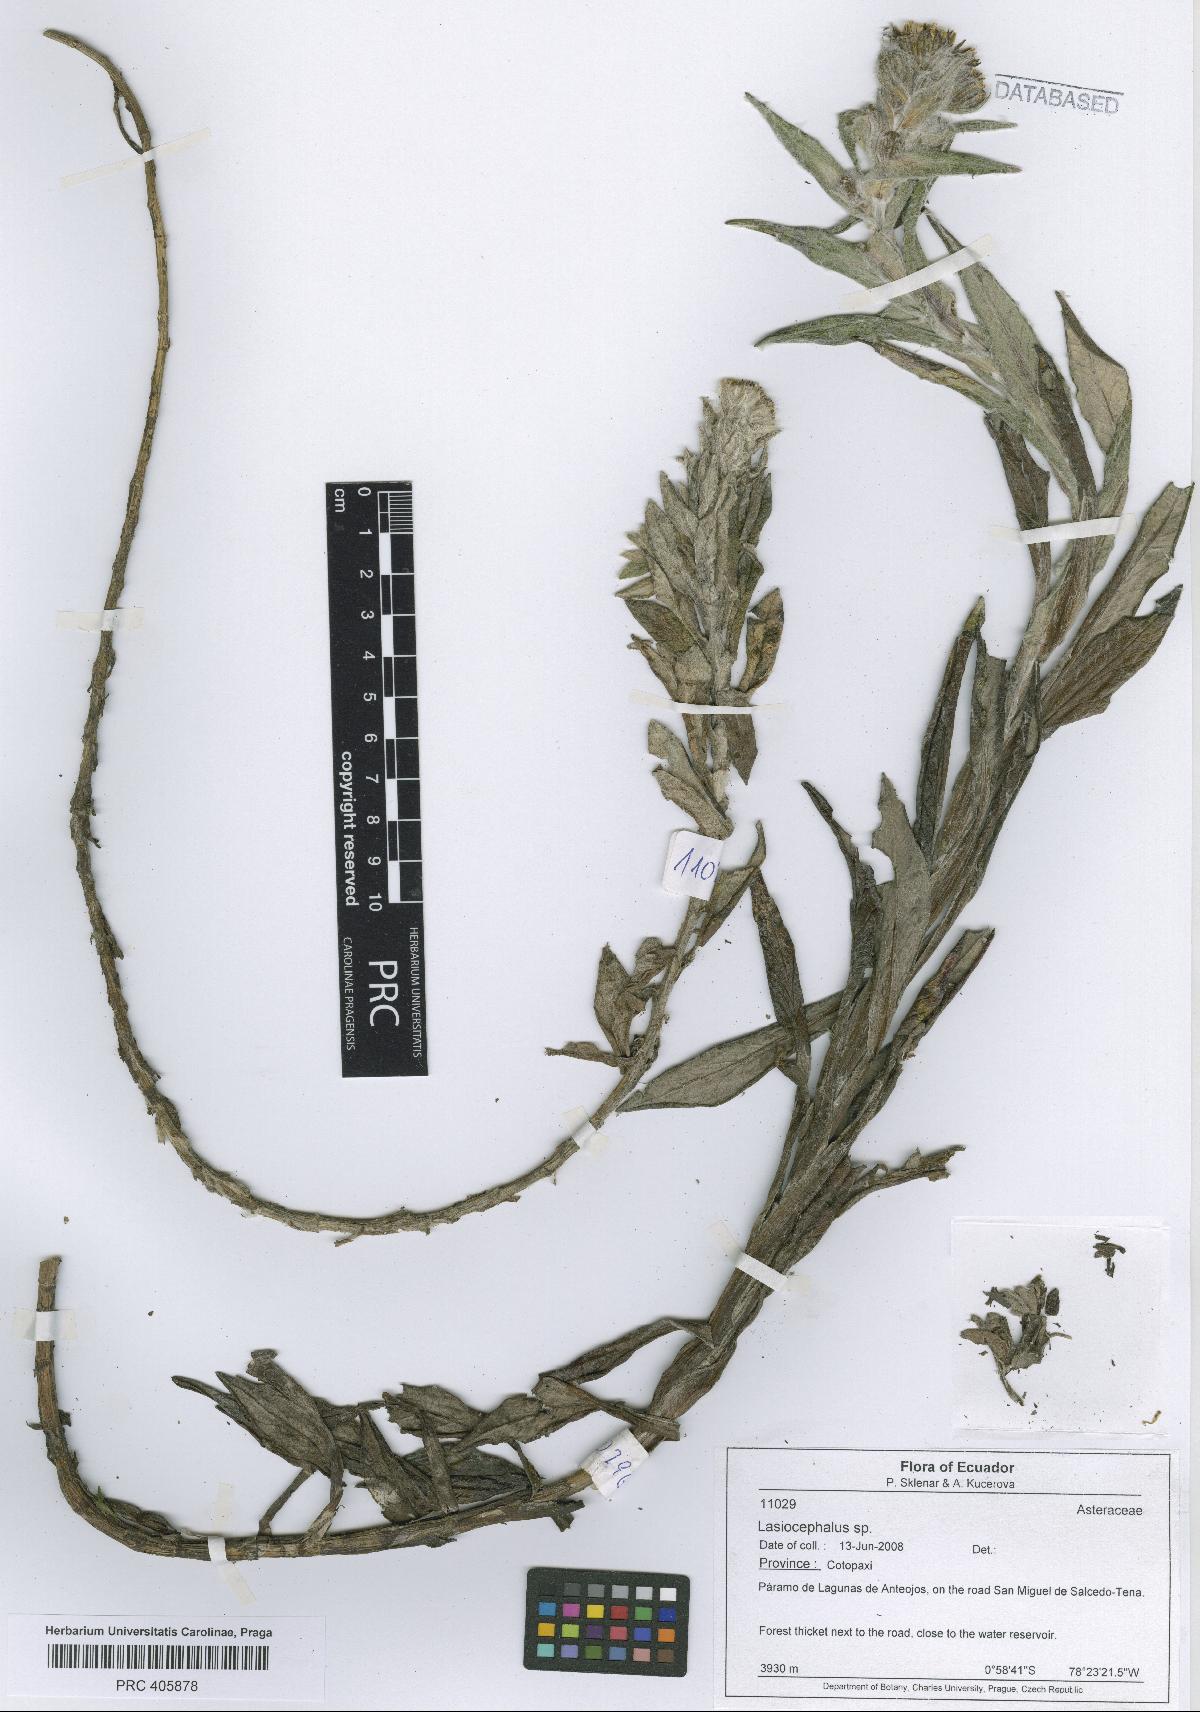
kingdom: Plantae
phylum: Tracheophyta
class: Magnoliopsida
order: Asterales
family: Asteraceae
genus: Lasiocephalus
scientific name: Lasiocephalus
